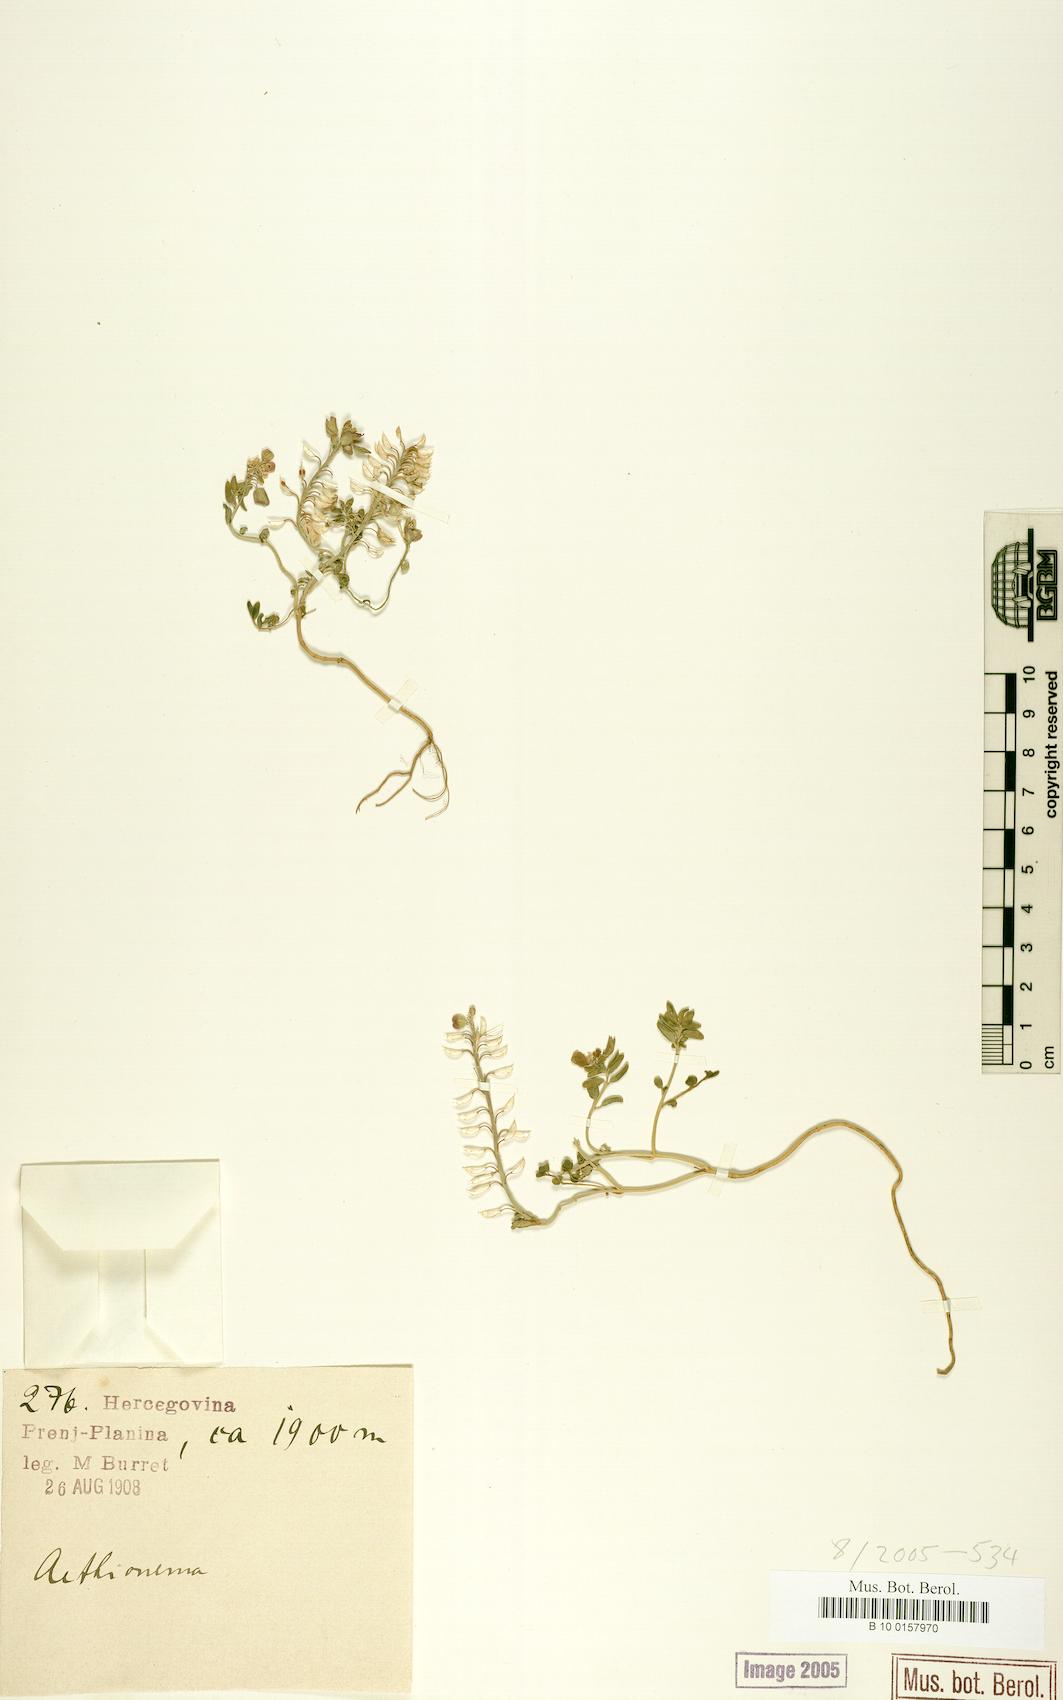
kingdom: Plantae
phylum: Tracheophyta
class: Magnoliopsida
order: Brassicales
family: Brassicaceae
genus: Aethionema
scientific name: Aethionema
